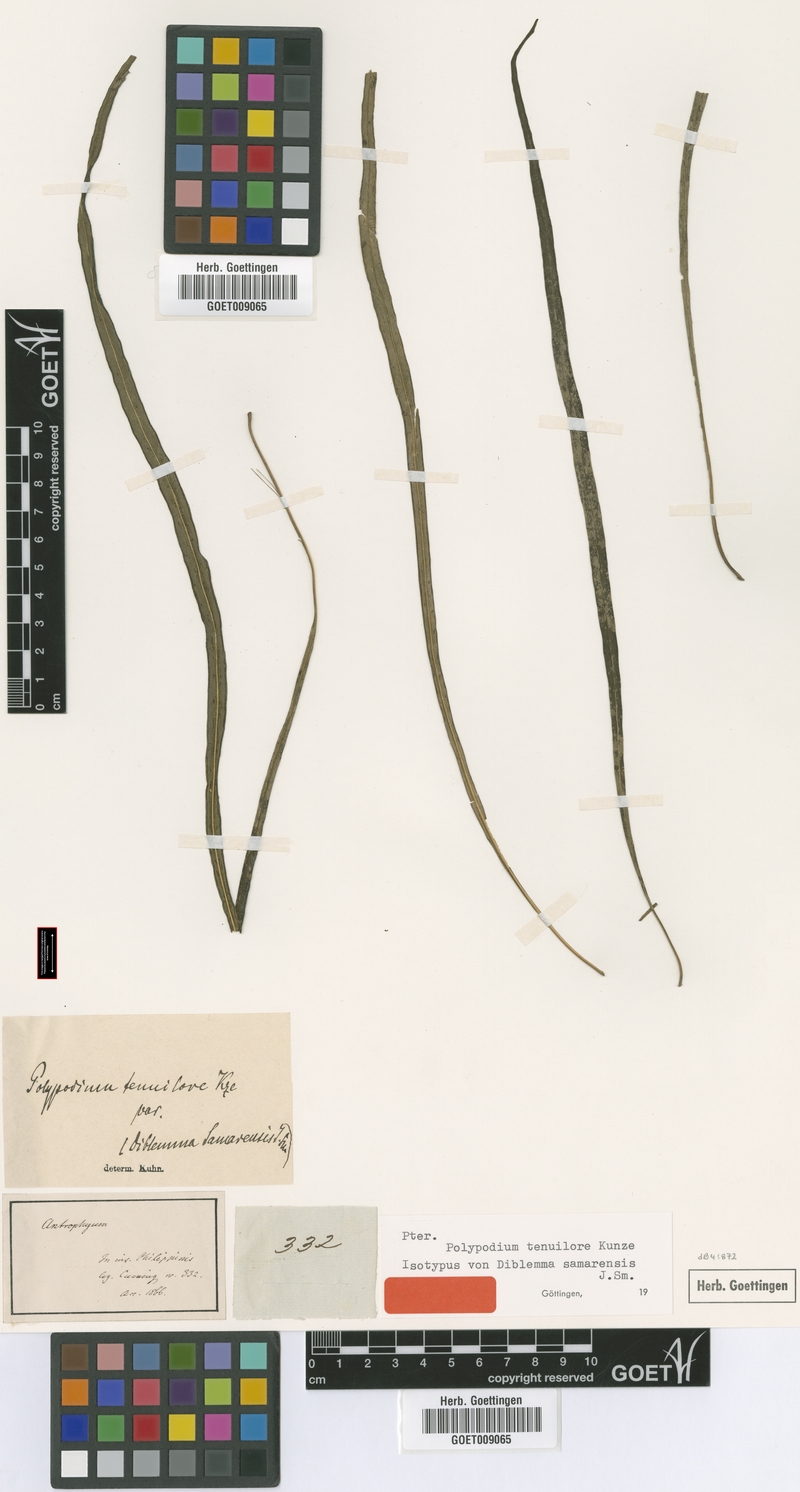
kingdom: Plantae
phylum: Tracheophyta
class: Polypodiopsida
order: Polypodiales
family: Polypodiaceae
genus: Microsorum
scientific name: Microsorum samarense
